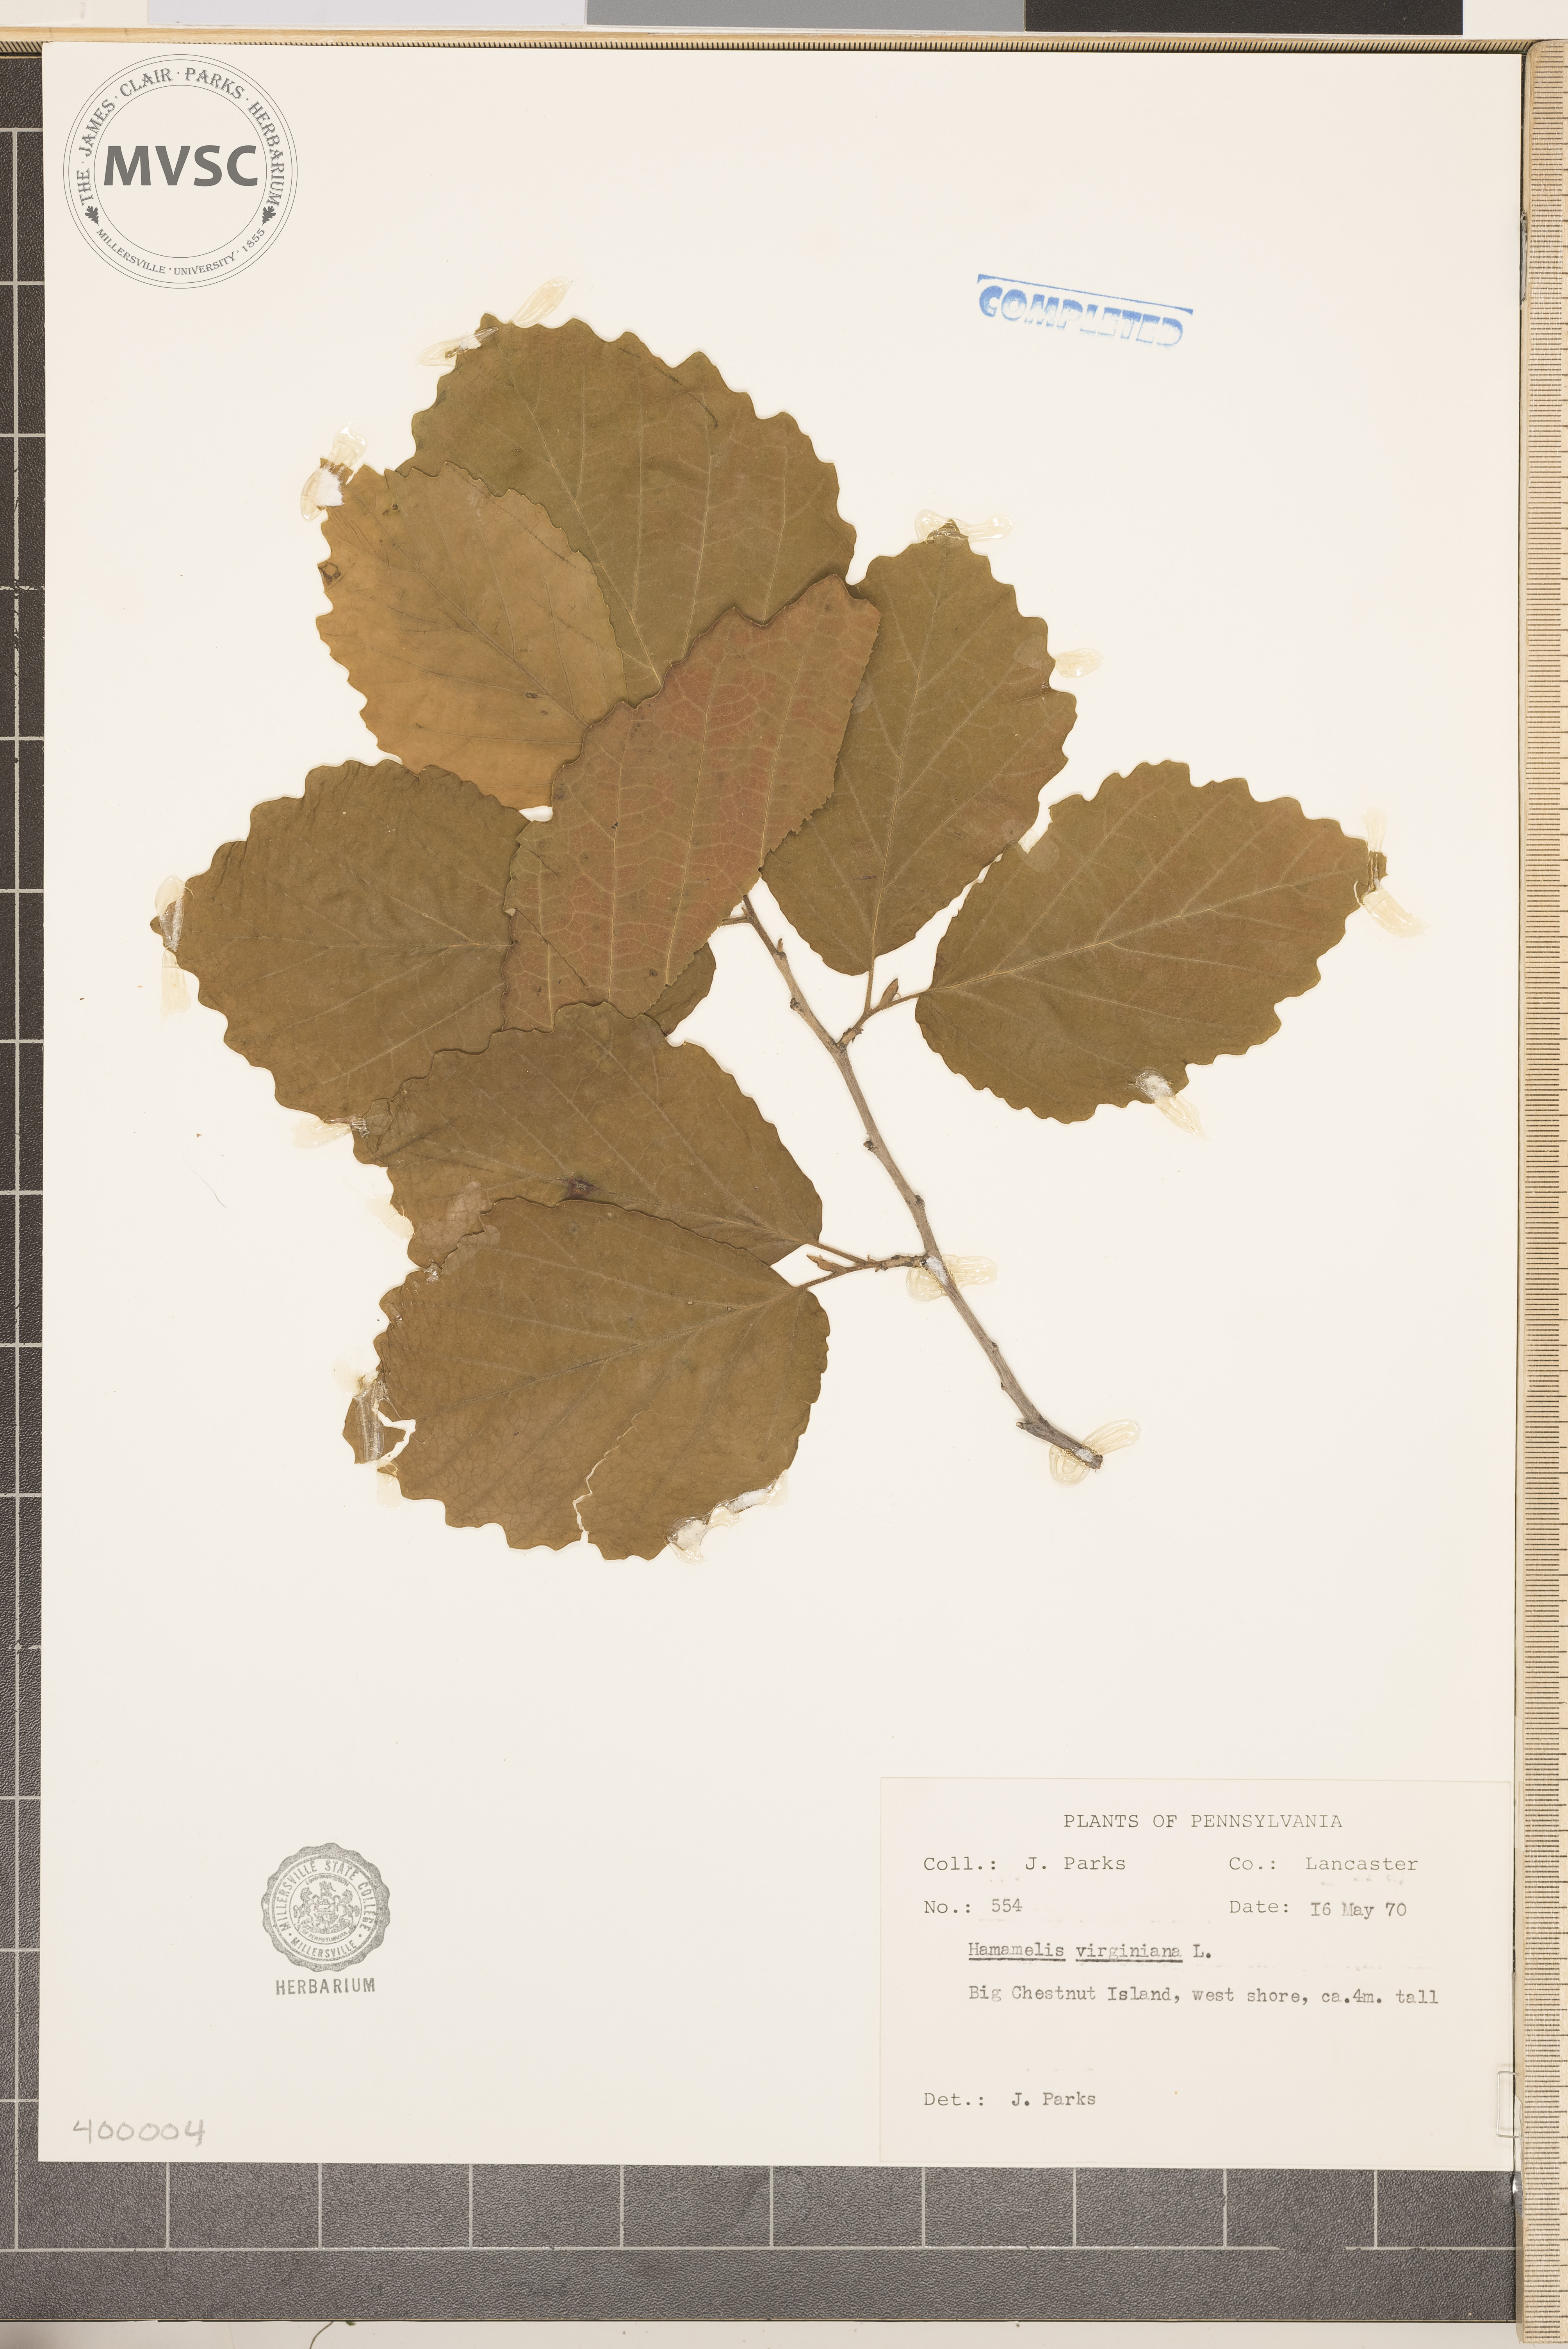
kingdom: Plantae
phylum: Tracheophyta
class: Magnoliopsida
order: Saxifragales
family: Hamamelidaceae
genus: Hamamelis
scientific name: Hamamelis virginiana
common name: witch-hazel
